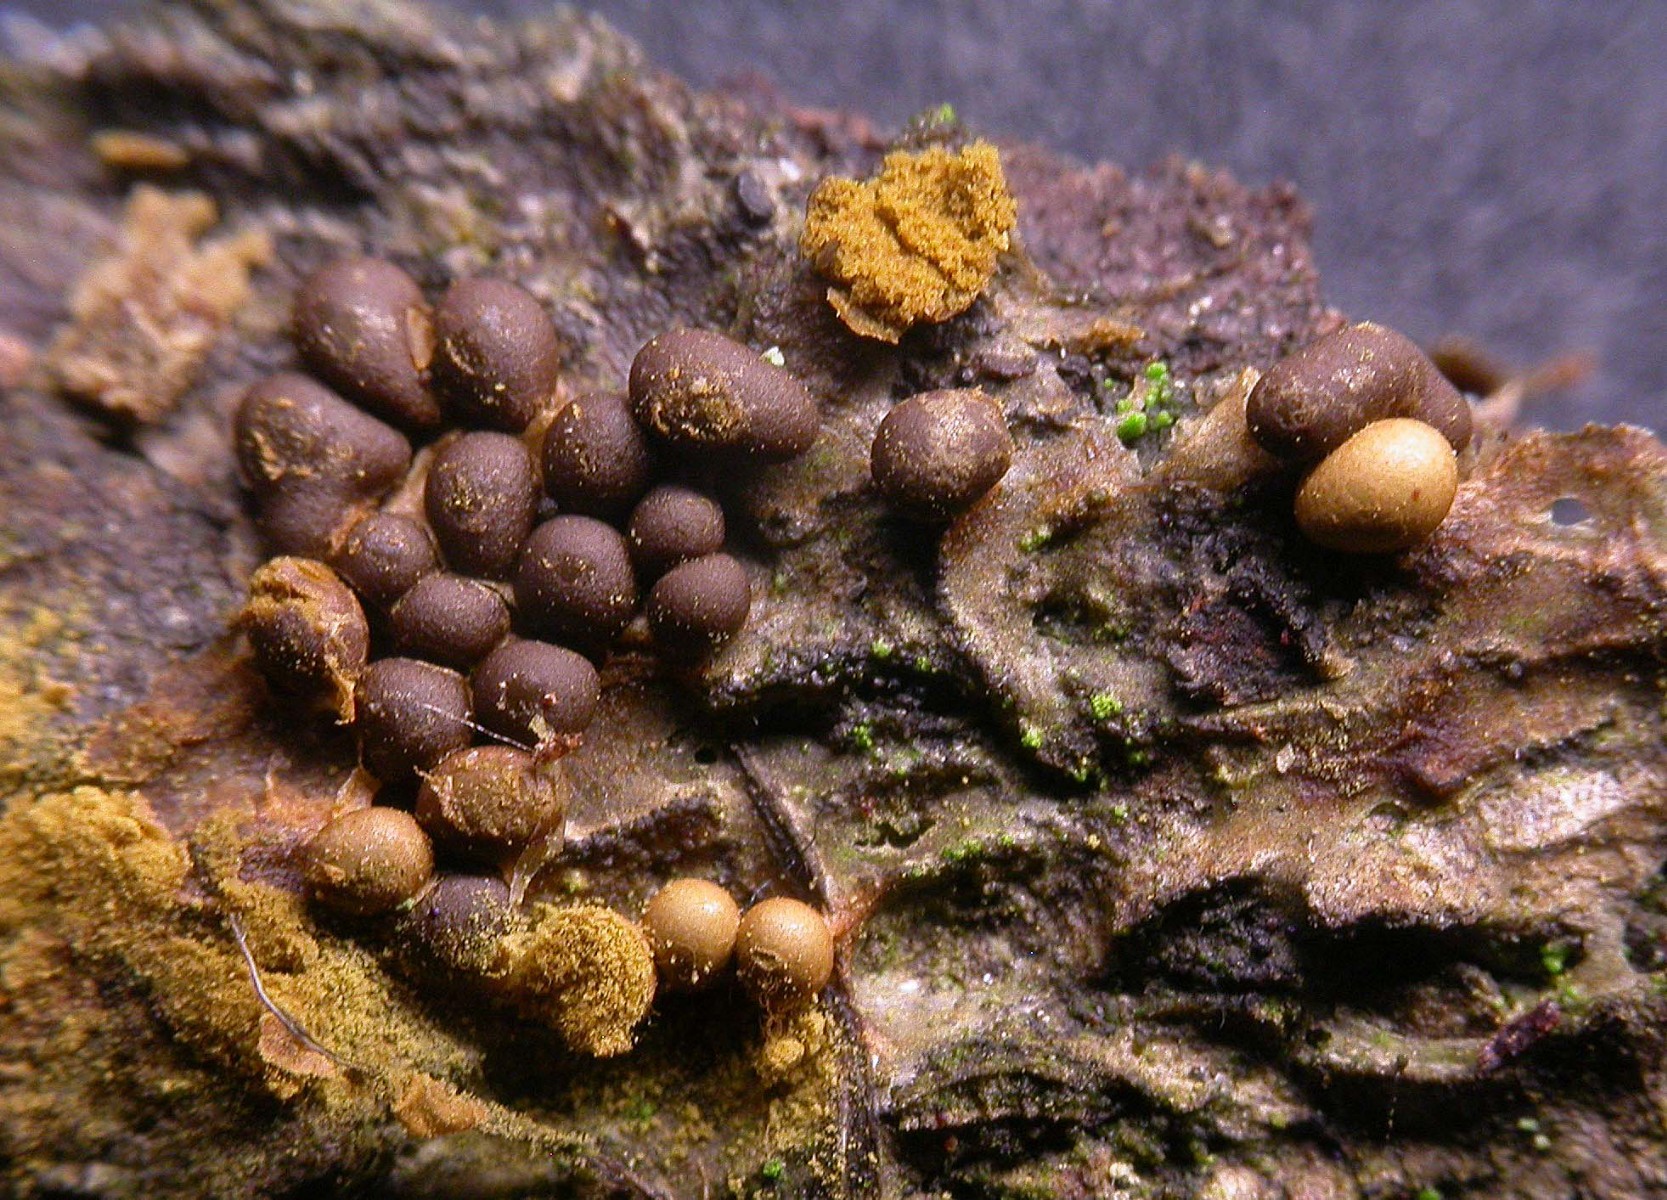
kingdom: Protozoa
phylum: Mycetozoa
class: Myxomycetes
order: Trichiales
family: Trichiaceae
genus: Trichia
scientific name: Trichia contorta
